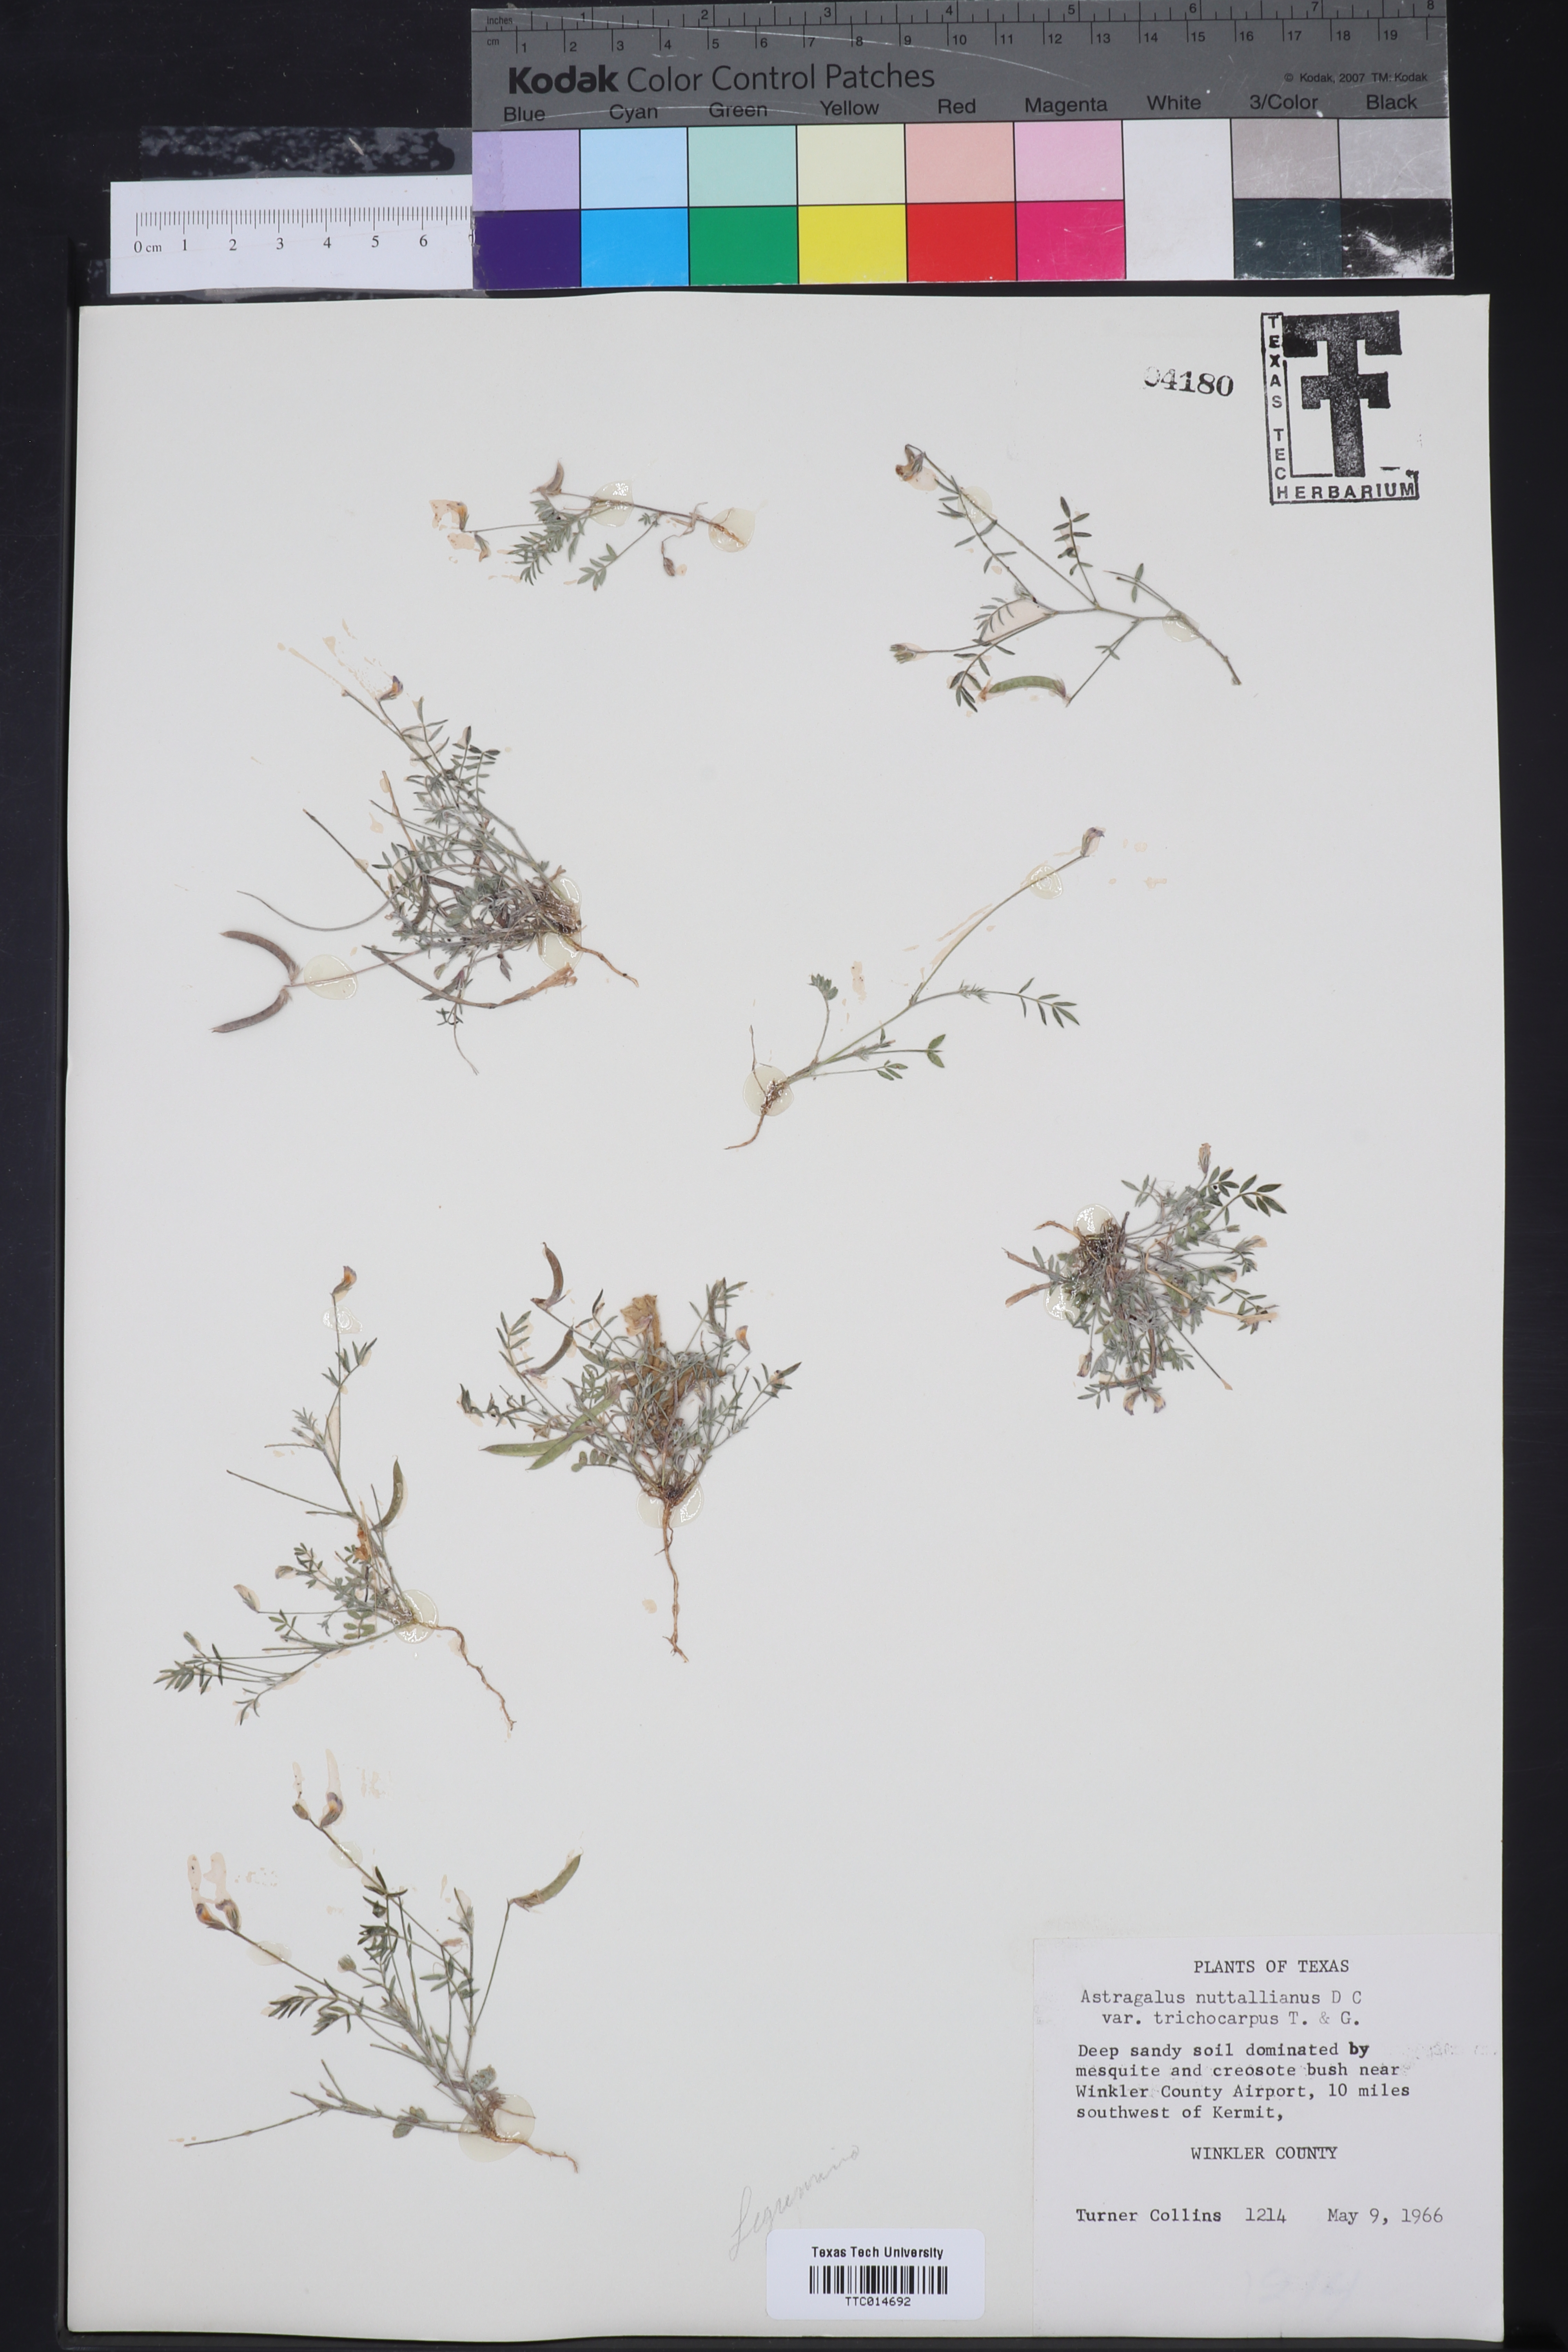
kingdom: Plantae
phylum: Tracheophyta
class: Magnoliopsida
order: Fabales
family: Fabaceae
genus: Astragalus
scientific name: Astragalus nuttallianus
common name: Smallflowered milkvetch
